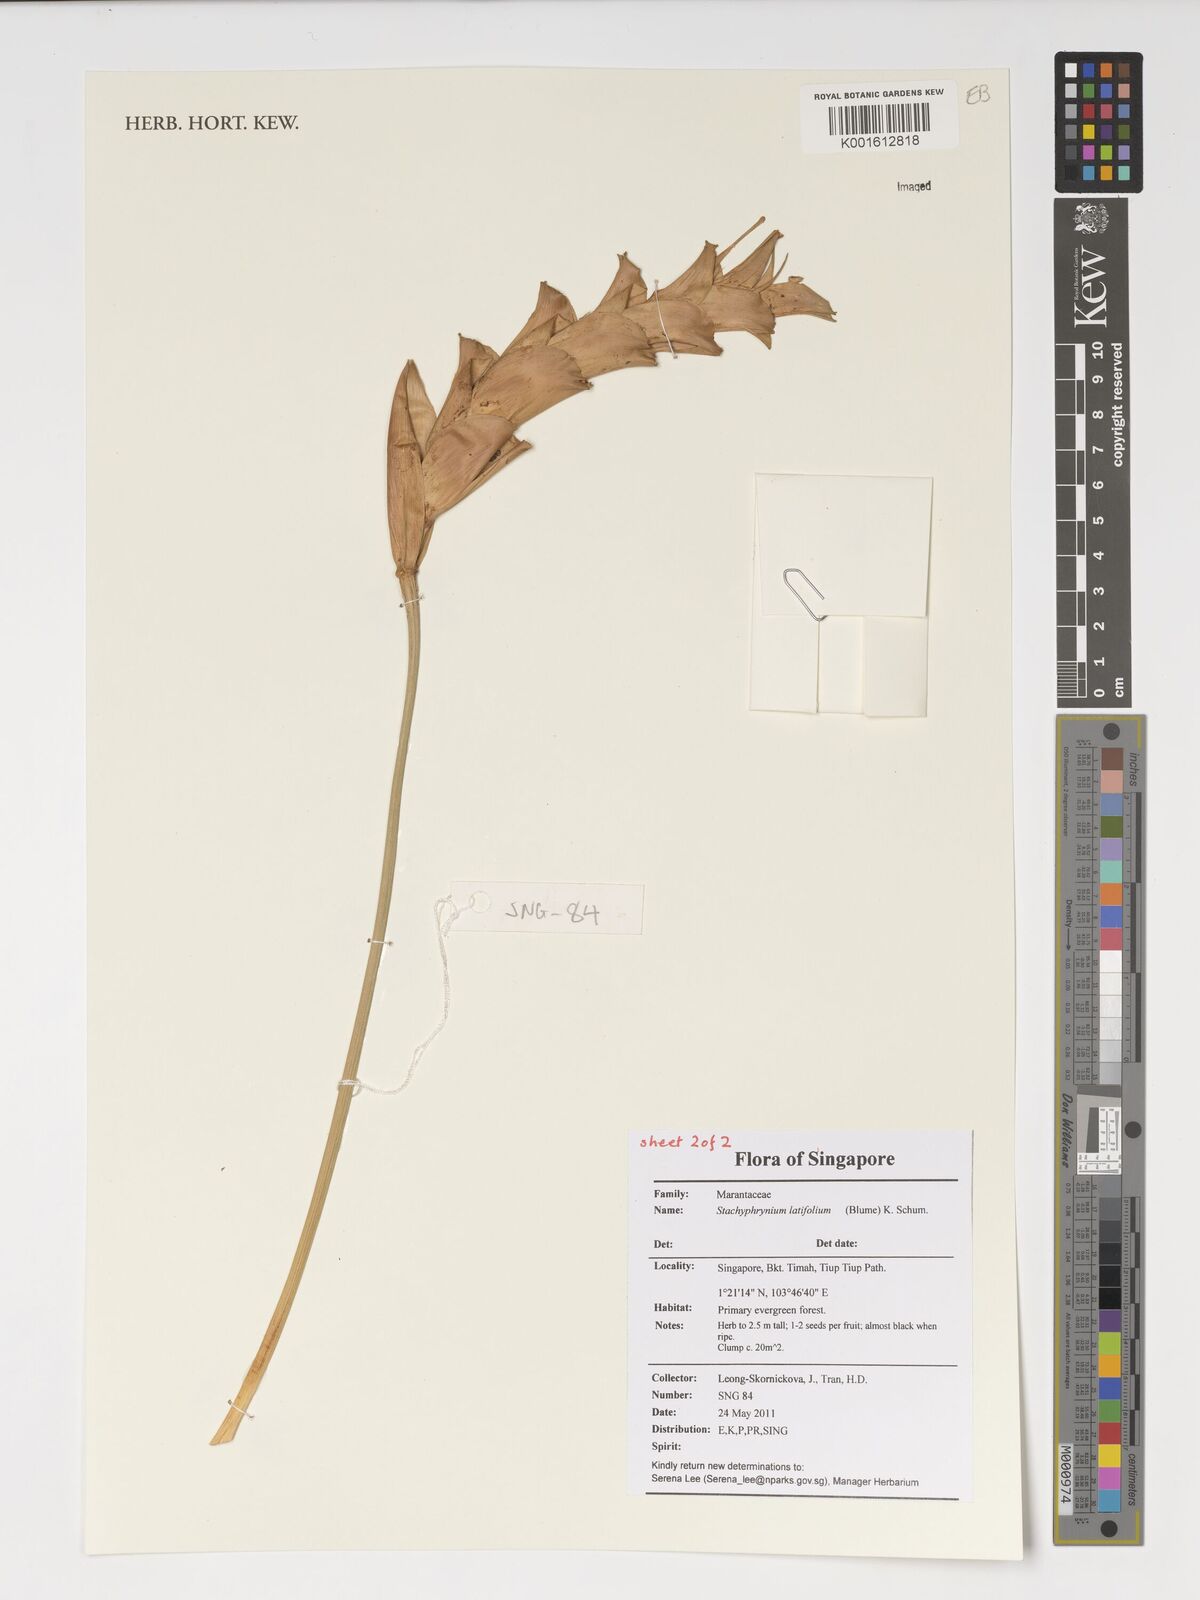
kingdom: Plantae
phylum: Tracheophyta
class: Liliopsida
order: Zingiberales
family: Marantaceae
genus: Stachyphrynium
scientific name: Stachyphrynium latifolium
